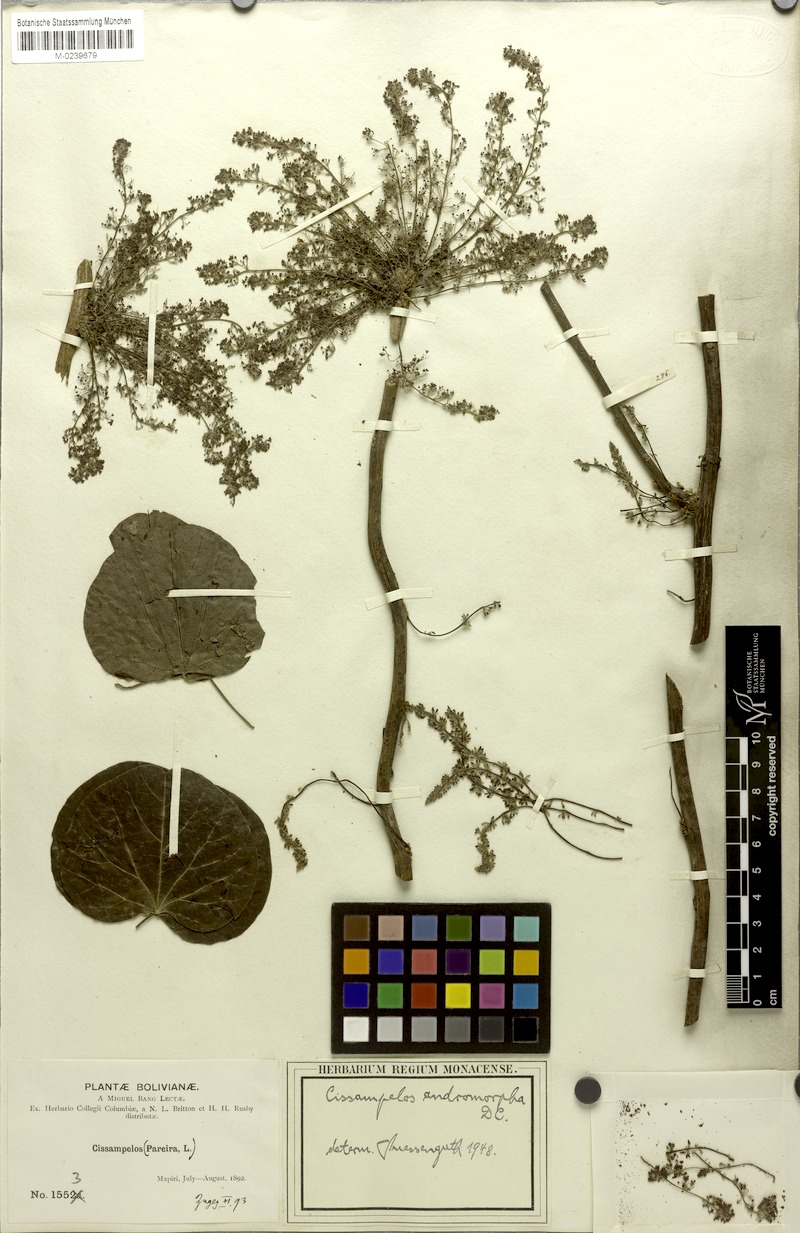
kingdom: Plantae
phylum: Tracheophyta
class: Magnoliopsida
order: Ranunculales
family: Menispermaceae
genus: Cissampelos
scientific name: Cissampelos andromorpha
